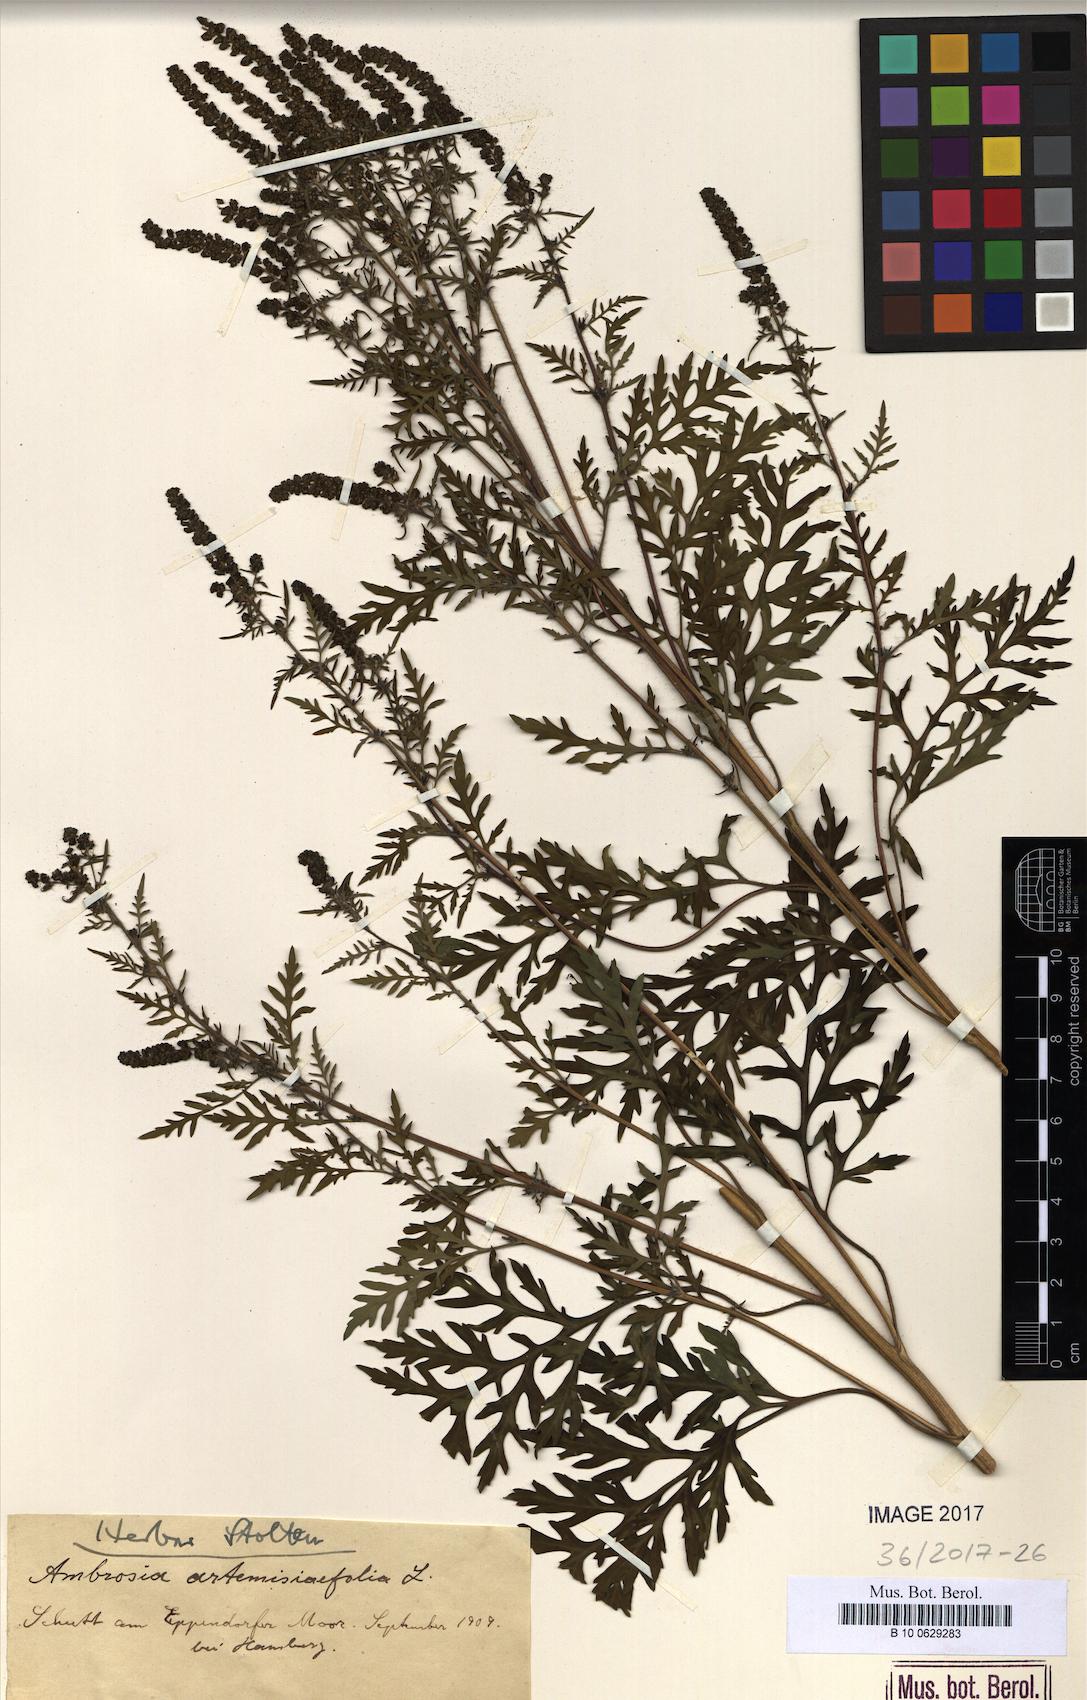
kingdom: Plantae
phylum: Tracheophyta
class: Magnoliopsida
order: Asterales
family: Asteraceae
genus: Ambrosia
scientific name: Ambrosia artemisiifolia
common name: Annual ragweed
